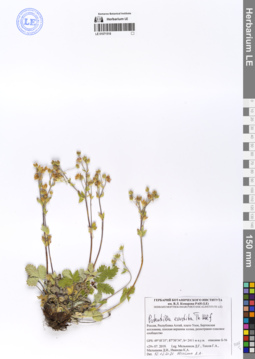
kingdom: Plantae
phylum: Tracheophyta
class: Magnoliopsida
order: Rosales
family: Rosaceae
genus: Potentilla
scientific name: Potentilla evestita
